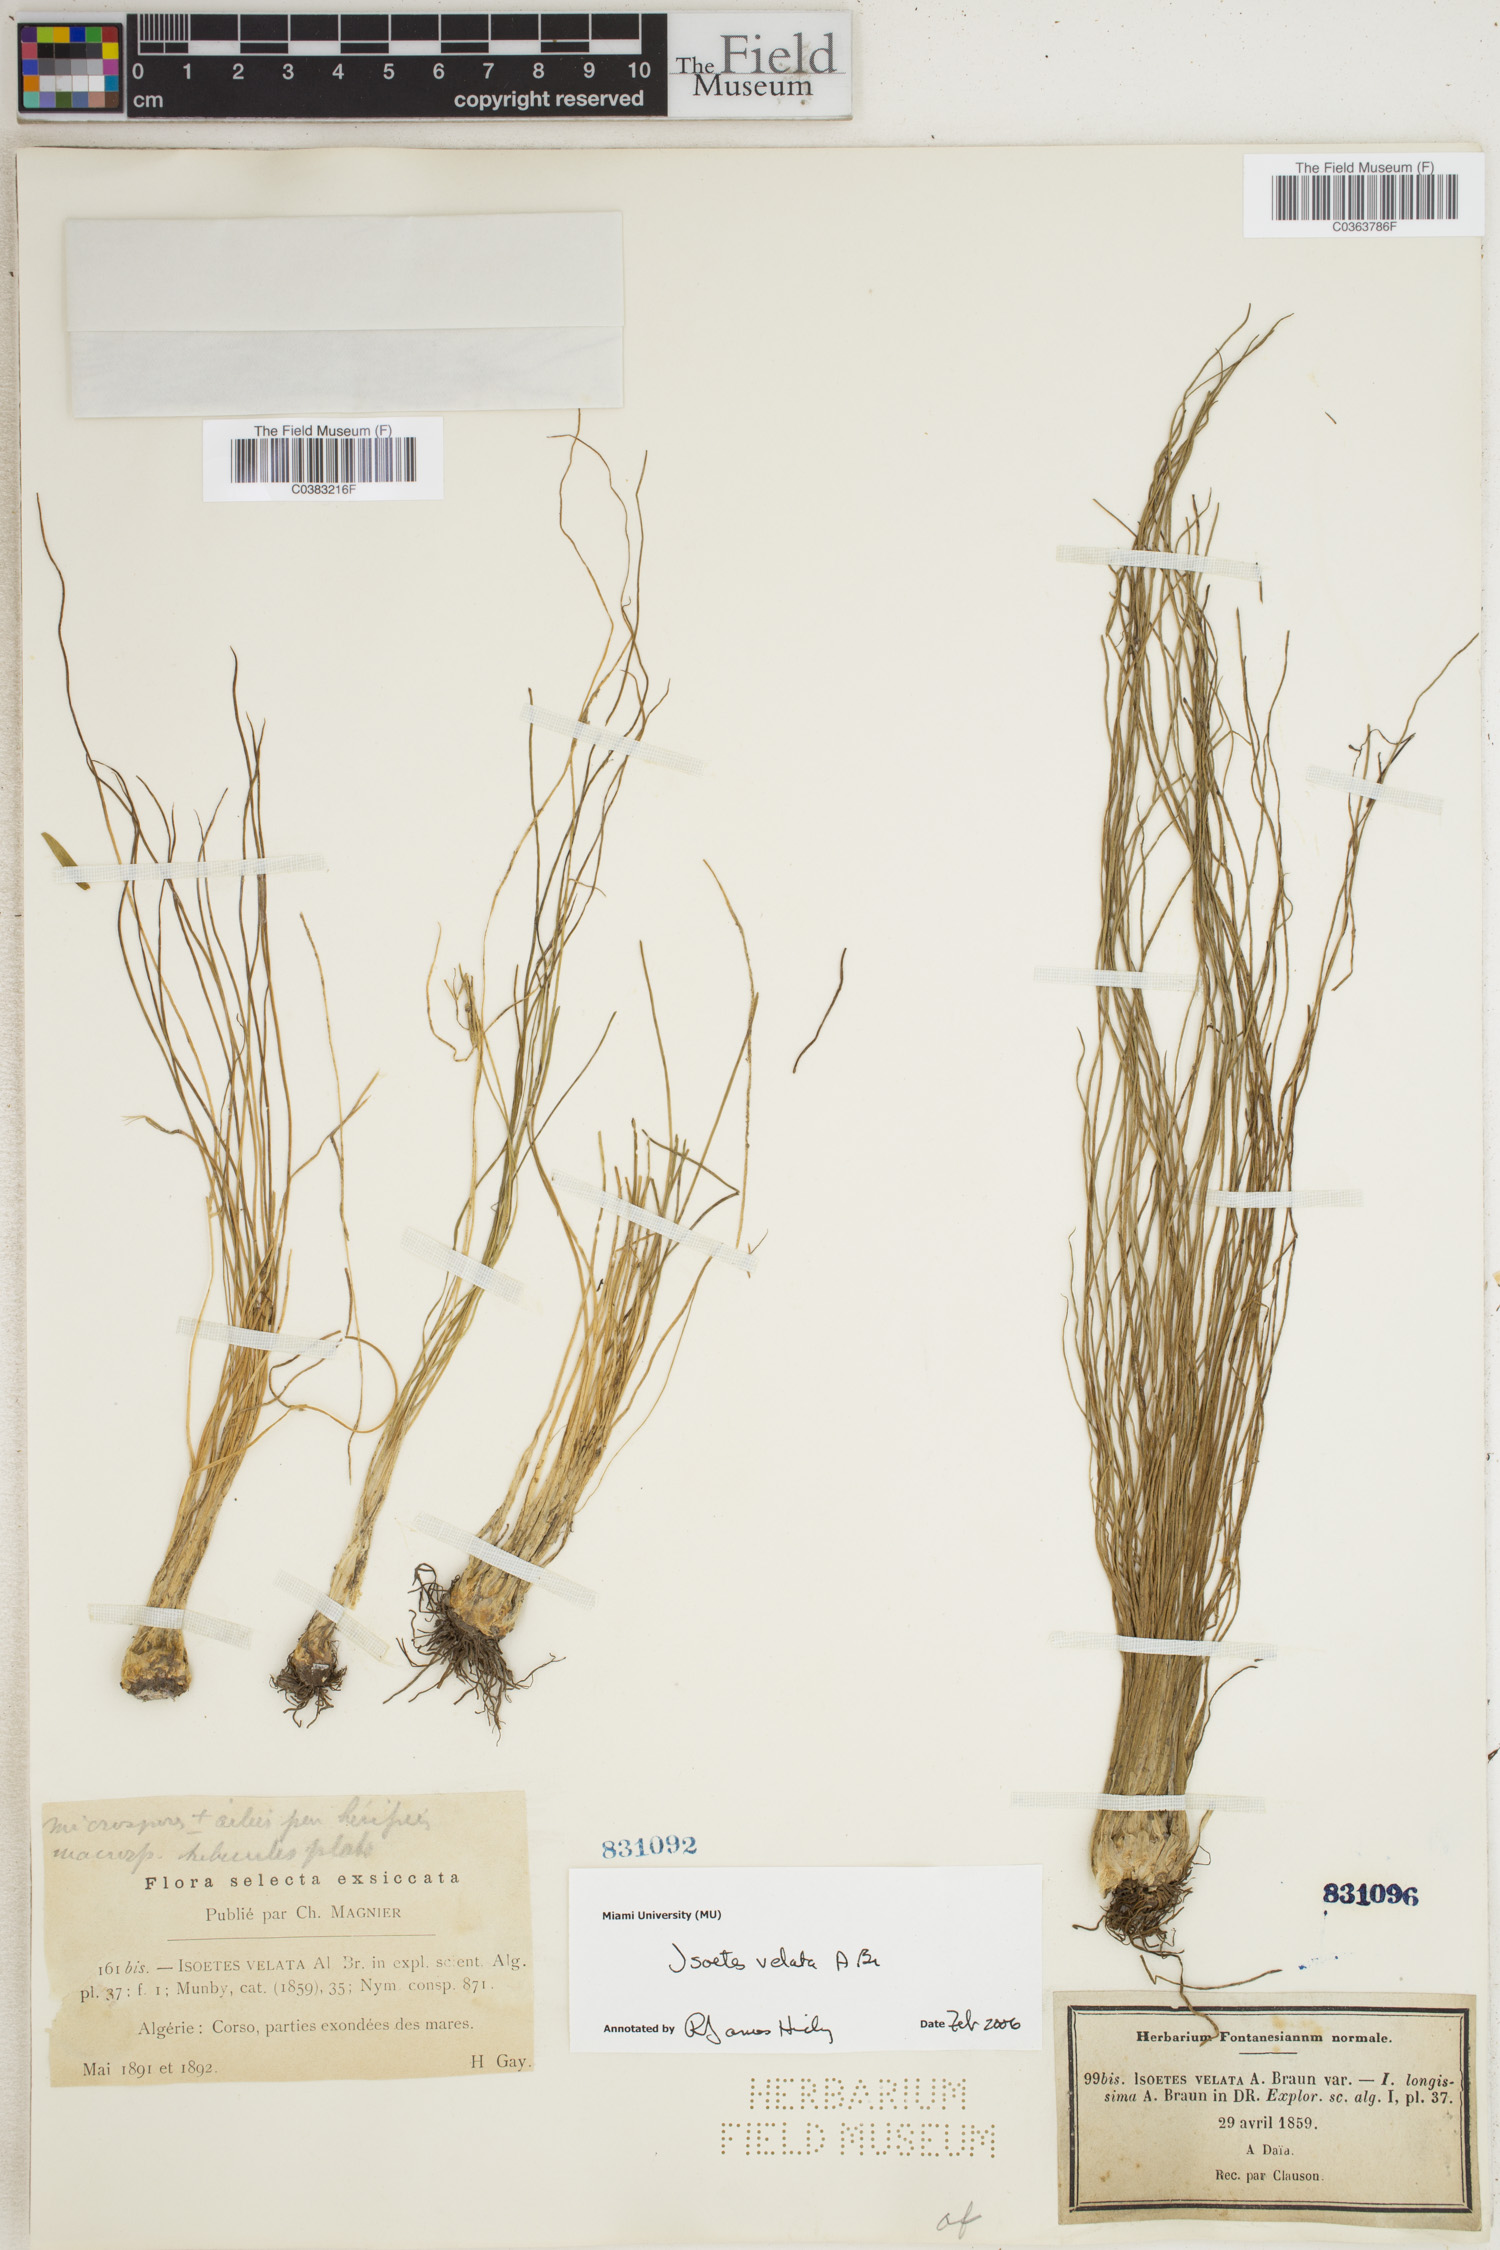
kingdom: Plantae
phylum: Tracheophyta
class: Lycopodiopsida
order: Isoetales
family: Isoetaceae
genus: Isoetes
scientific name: Isoetes longissima
